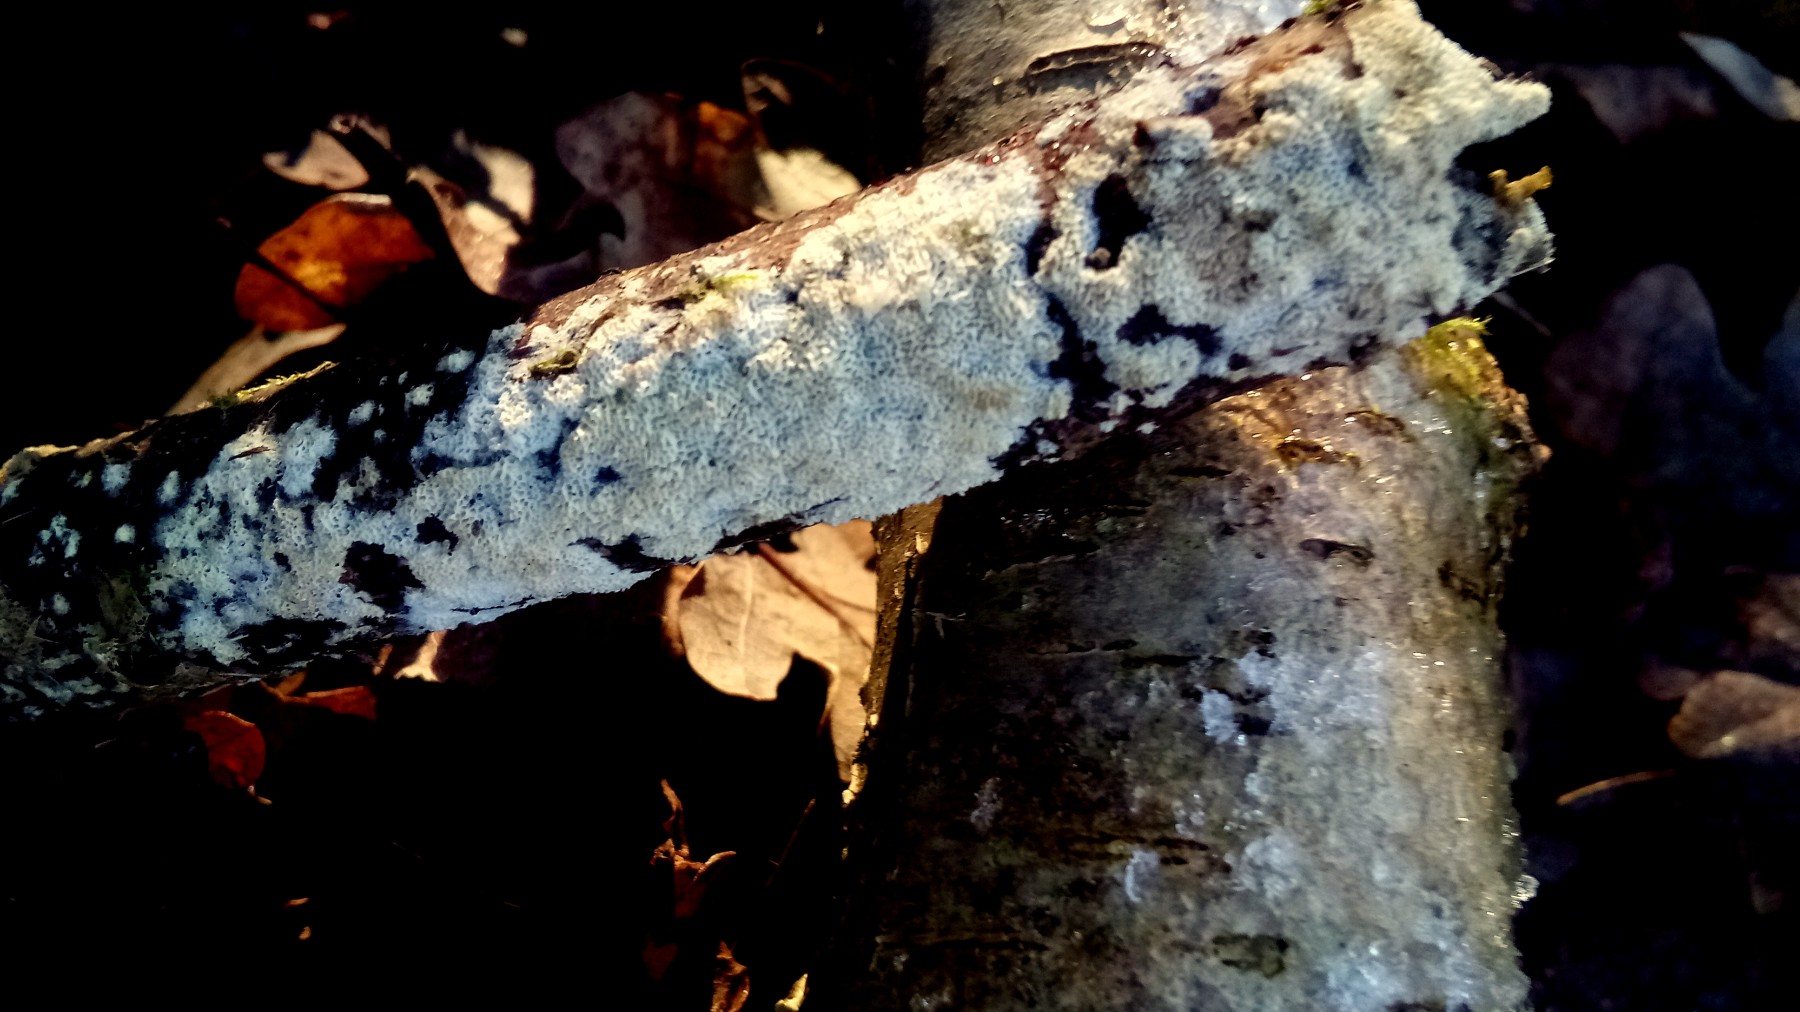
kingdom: Fungi
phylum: Basidiomycota
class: Agaricomycetes
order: Hymenochaetales
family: Schizoporaceae
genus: Xylodon
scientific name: Xylodon subtropicus
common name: labyrint-tandsvamp
